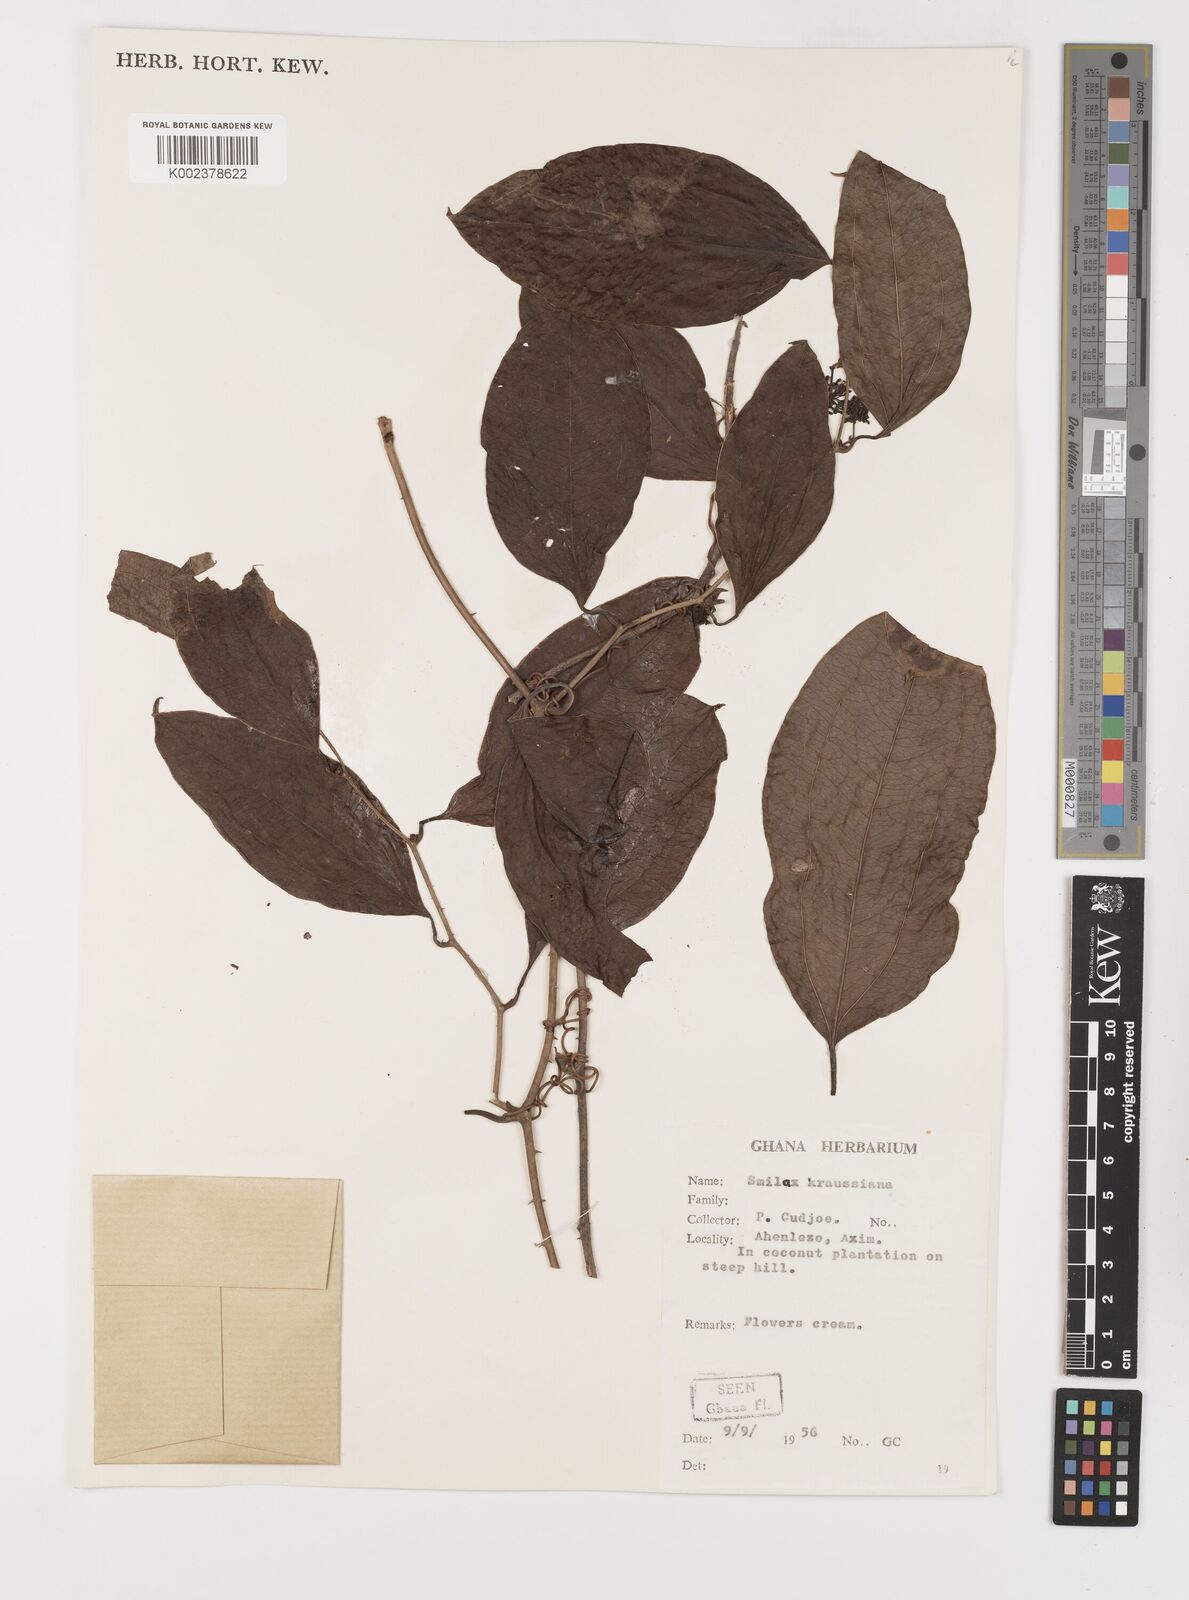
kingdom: Plantae
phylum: Tracheophyta
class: Liliopsida
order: Liliales
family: Smilacaceae
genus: Smilax
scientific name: Smilax anceps
